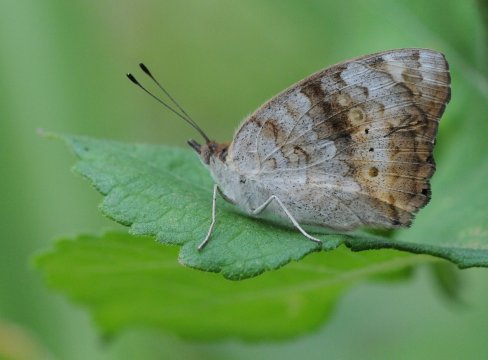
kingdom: Animalia
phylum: Arthropoda
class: Insecta
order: Lepidoptera
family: Nymphalidae
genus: Junonia
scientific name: Junonia hierta
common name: Yellow Pansy
